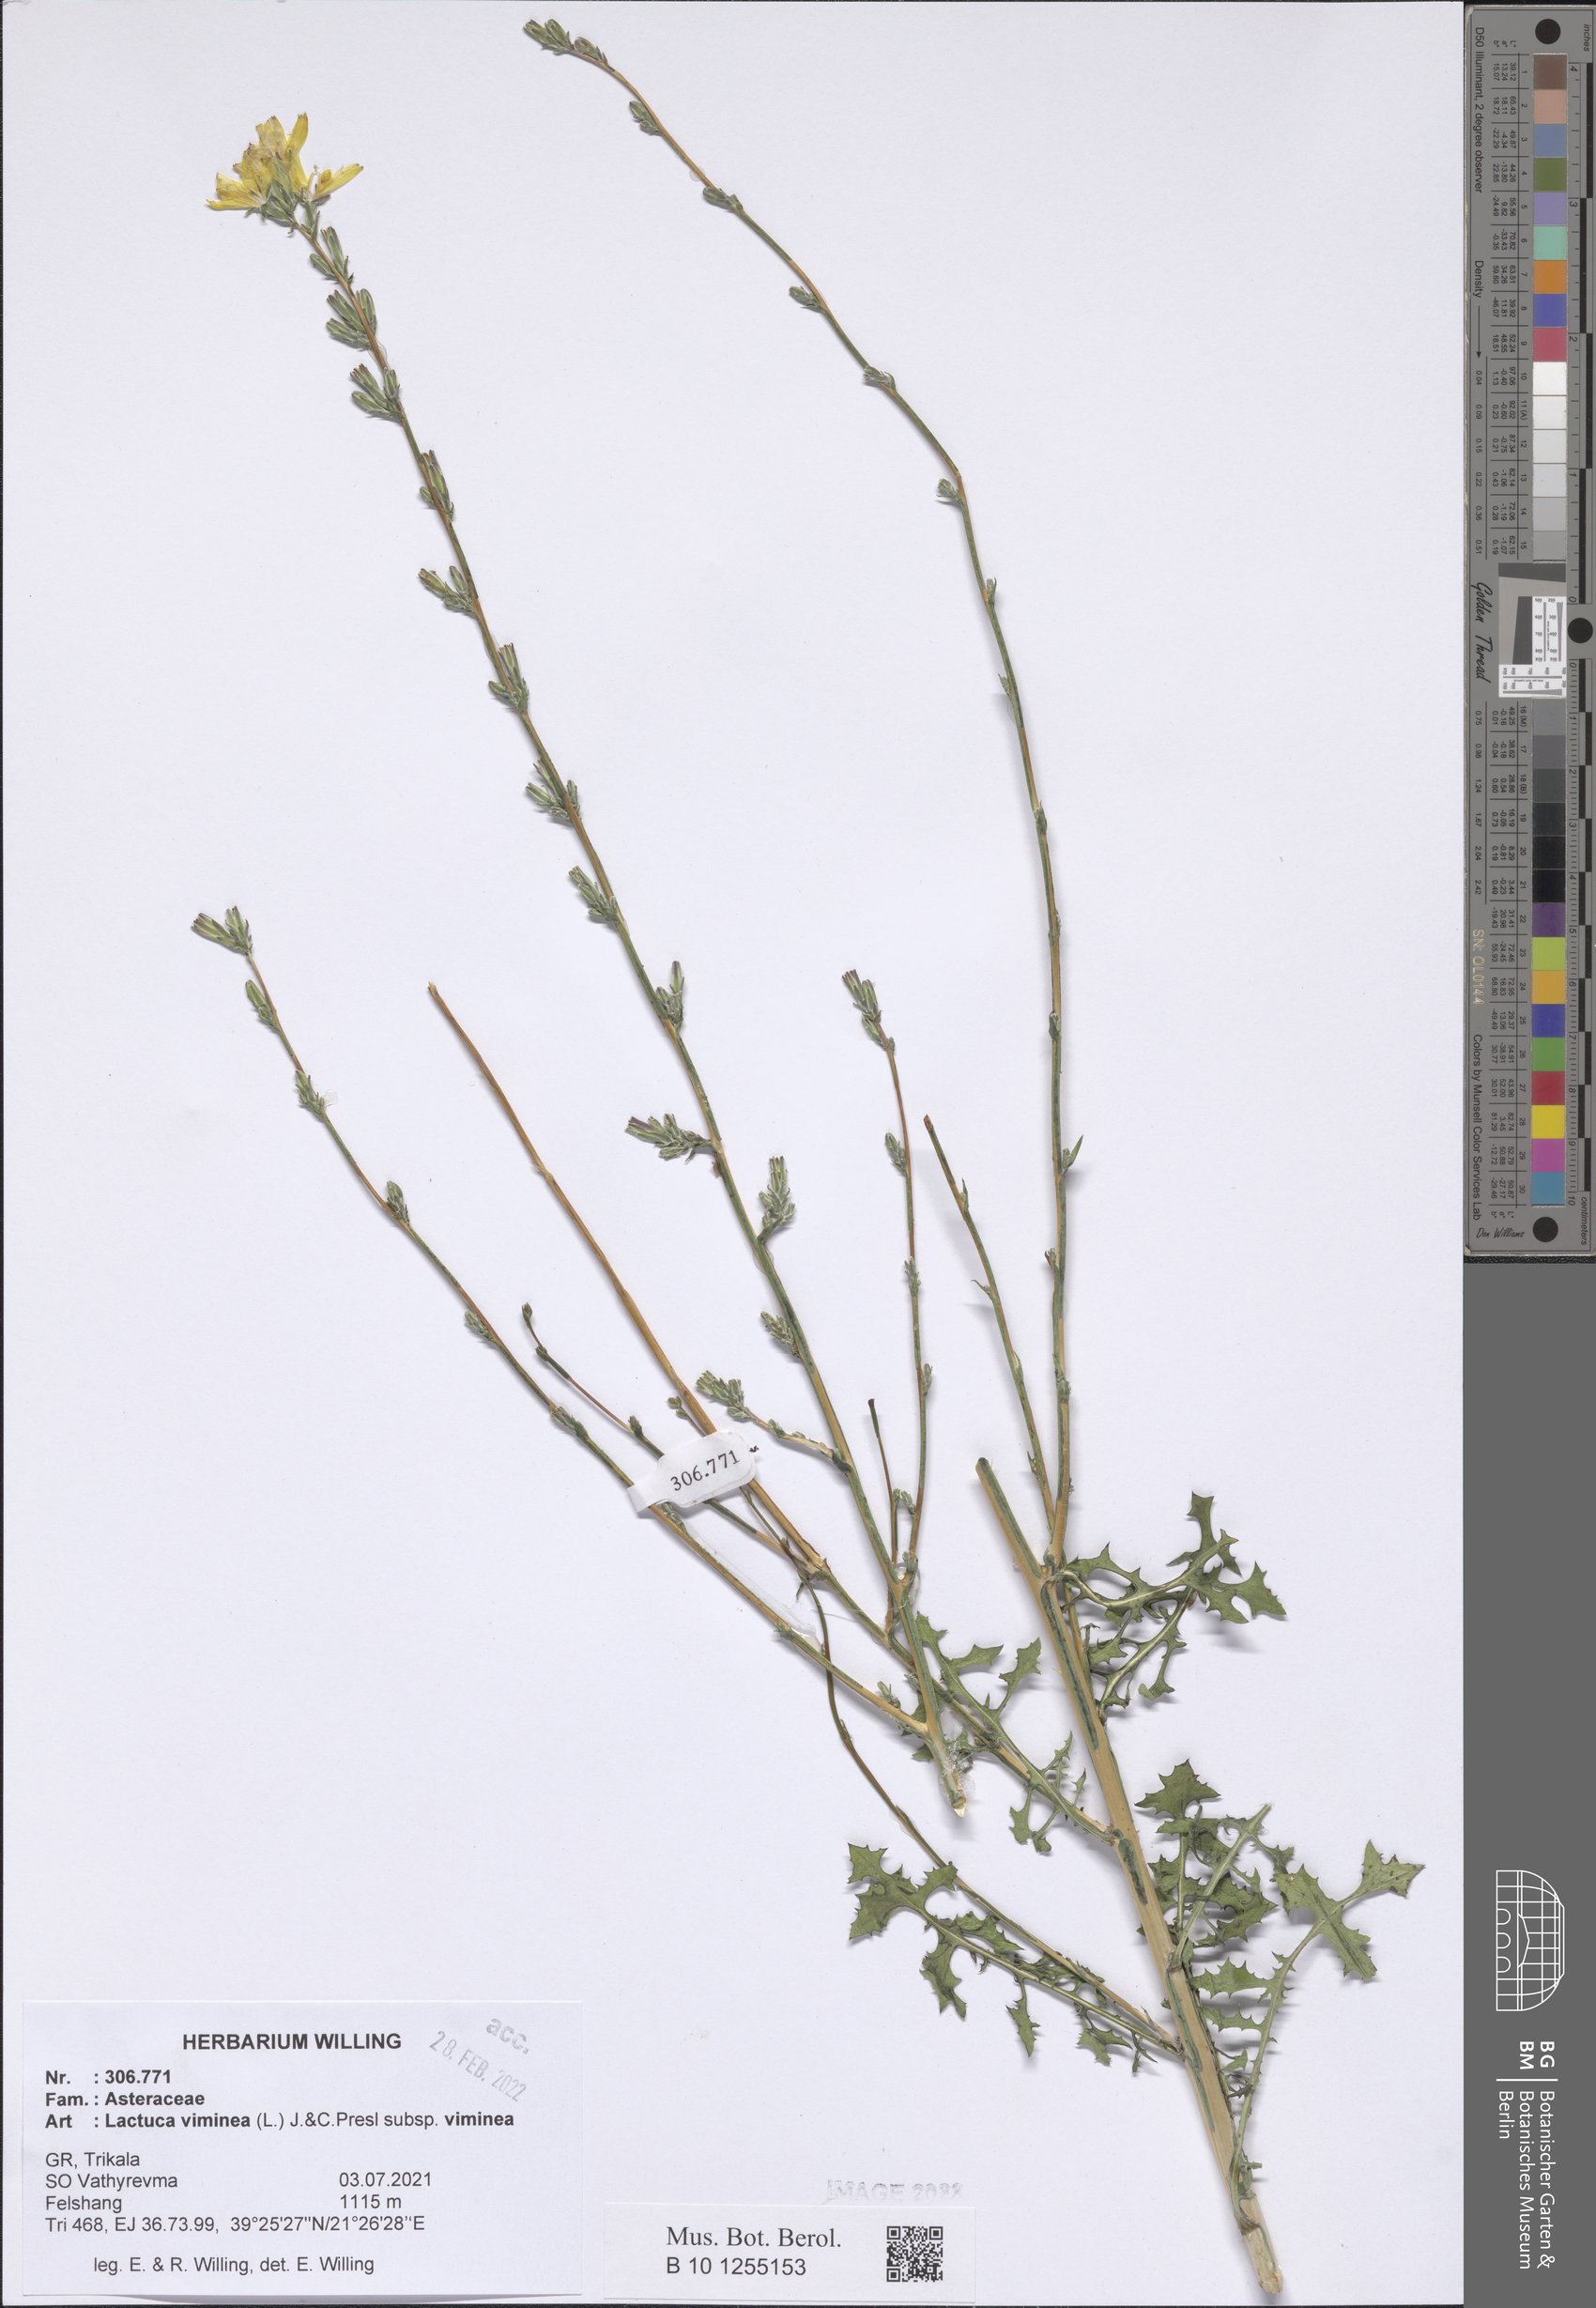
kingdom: Plantae
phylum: Tracheophyta
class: Magnoliopsida
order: Asterales
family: Asteraceae
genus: Lactuca
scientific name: Lactuca viminea
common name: Pliant lettuce
